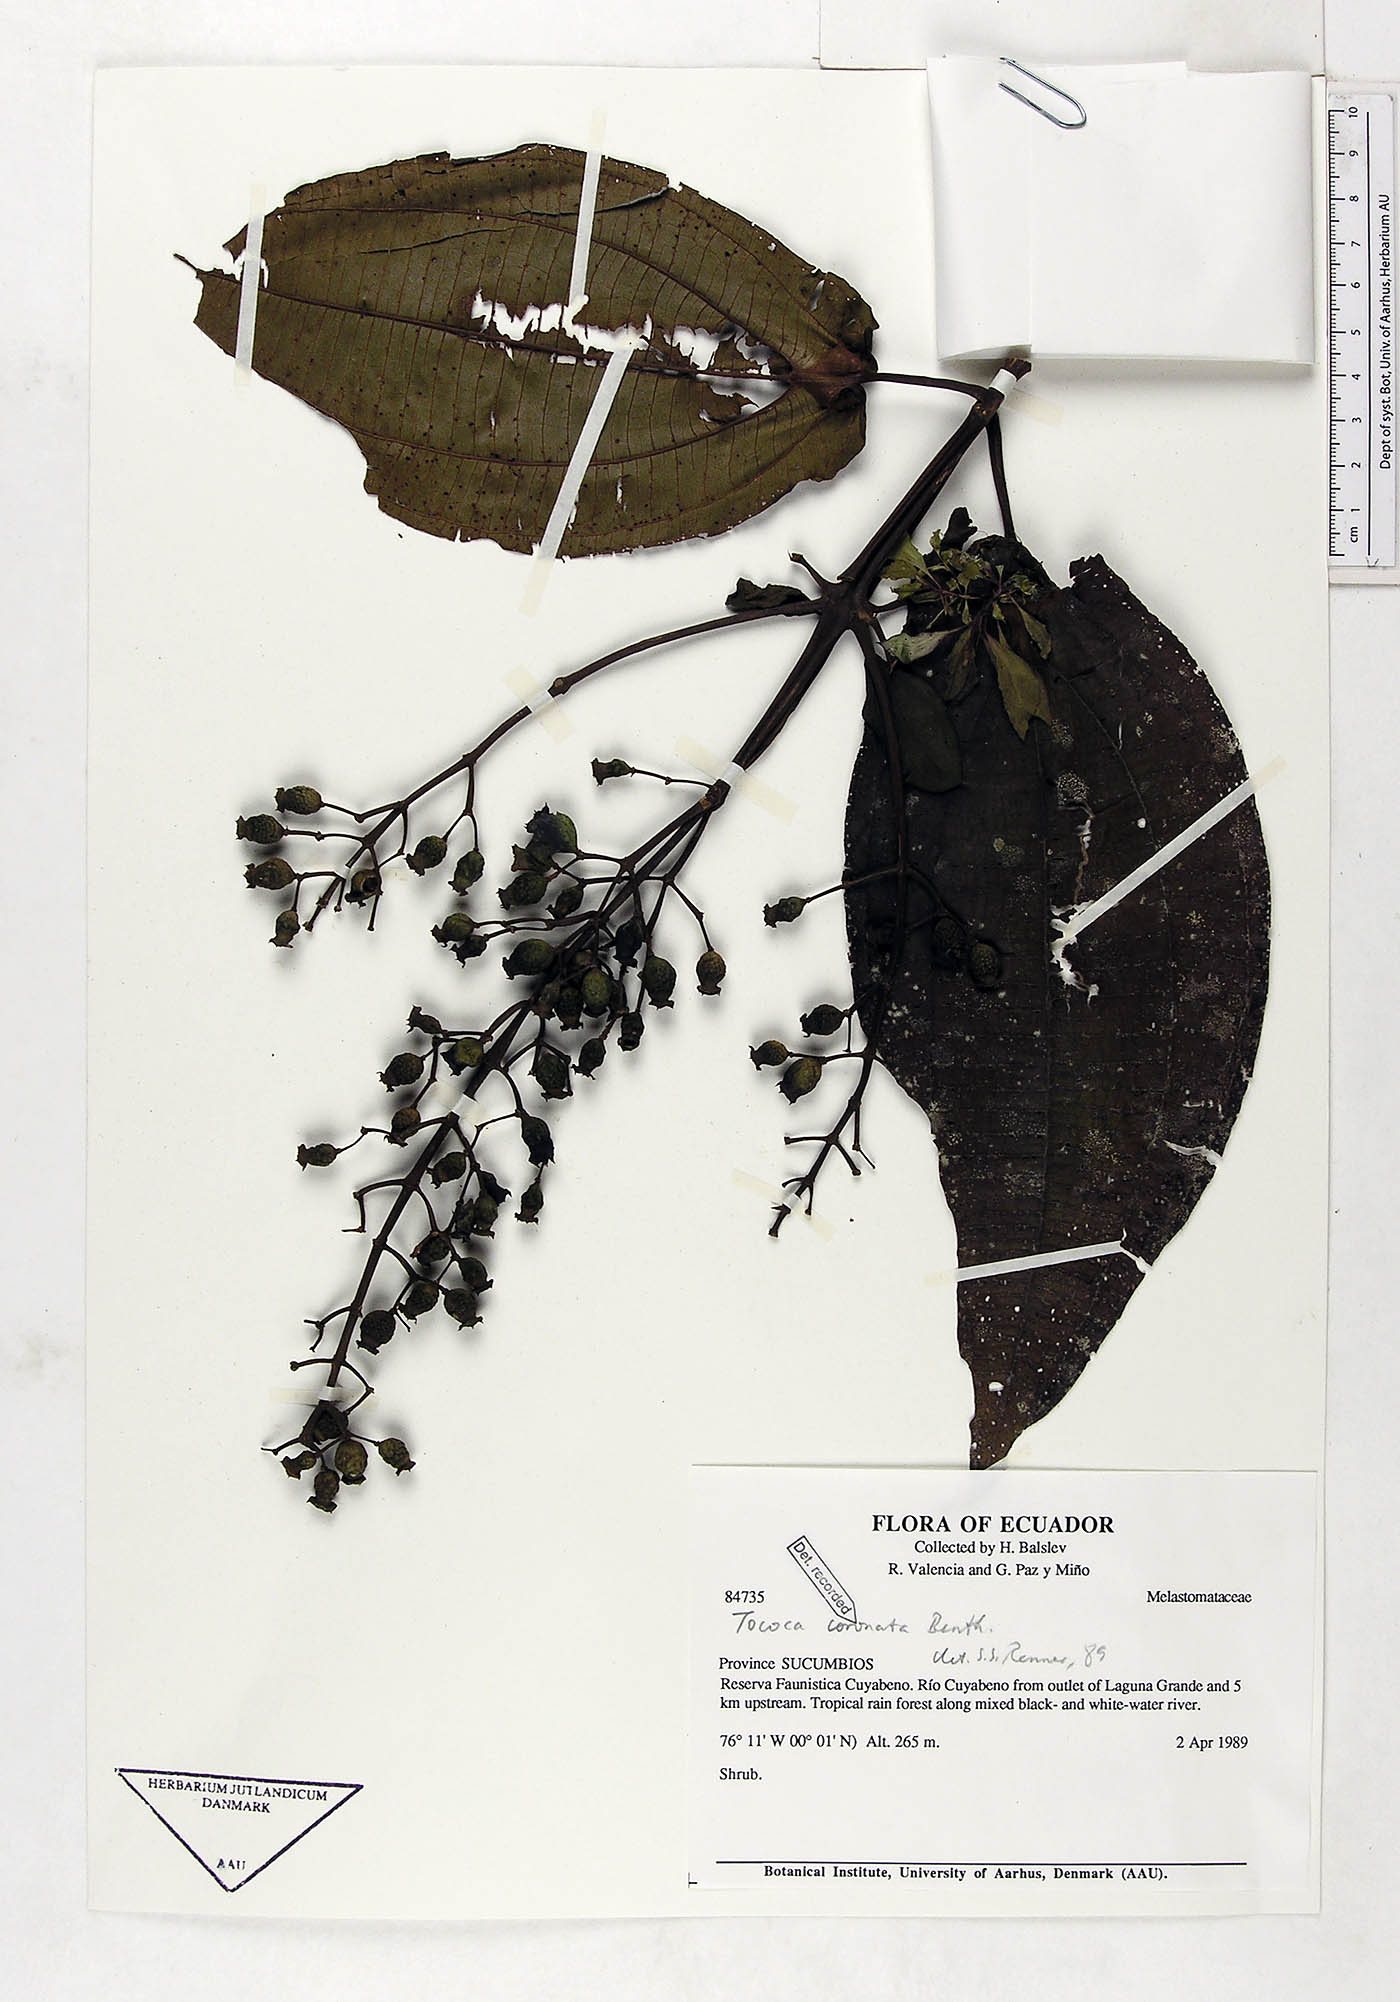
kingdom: Plantae
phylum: Tracheophyta
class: Magnoliopsida
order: Myrtales
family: Melastomataceae
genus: Miconia
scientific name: Miconia tococoronata
